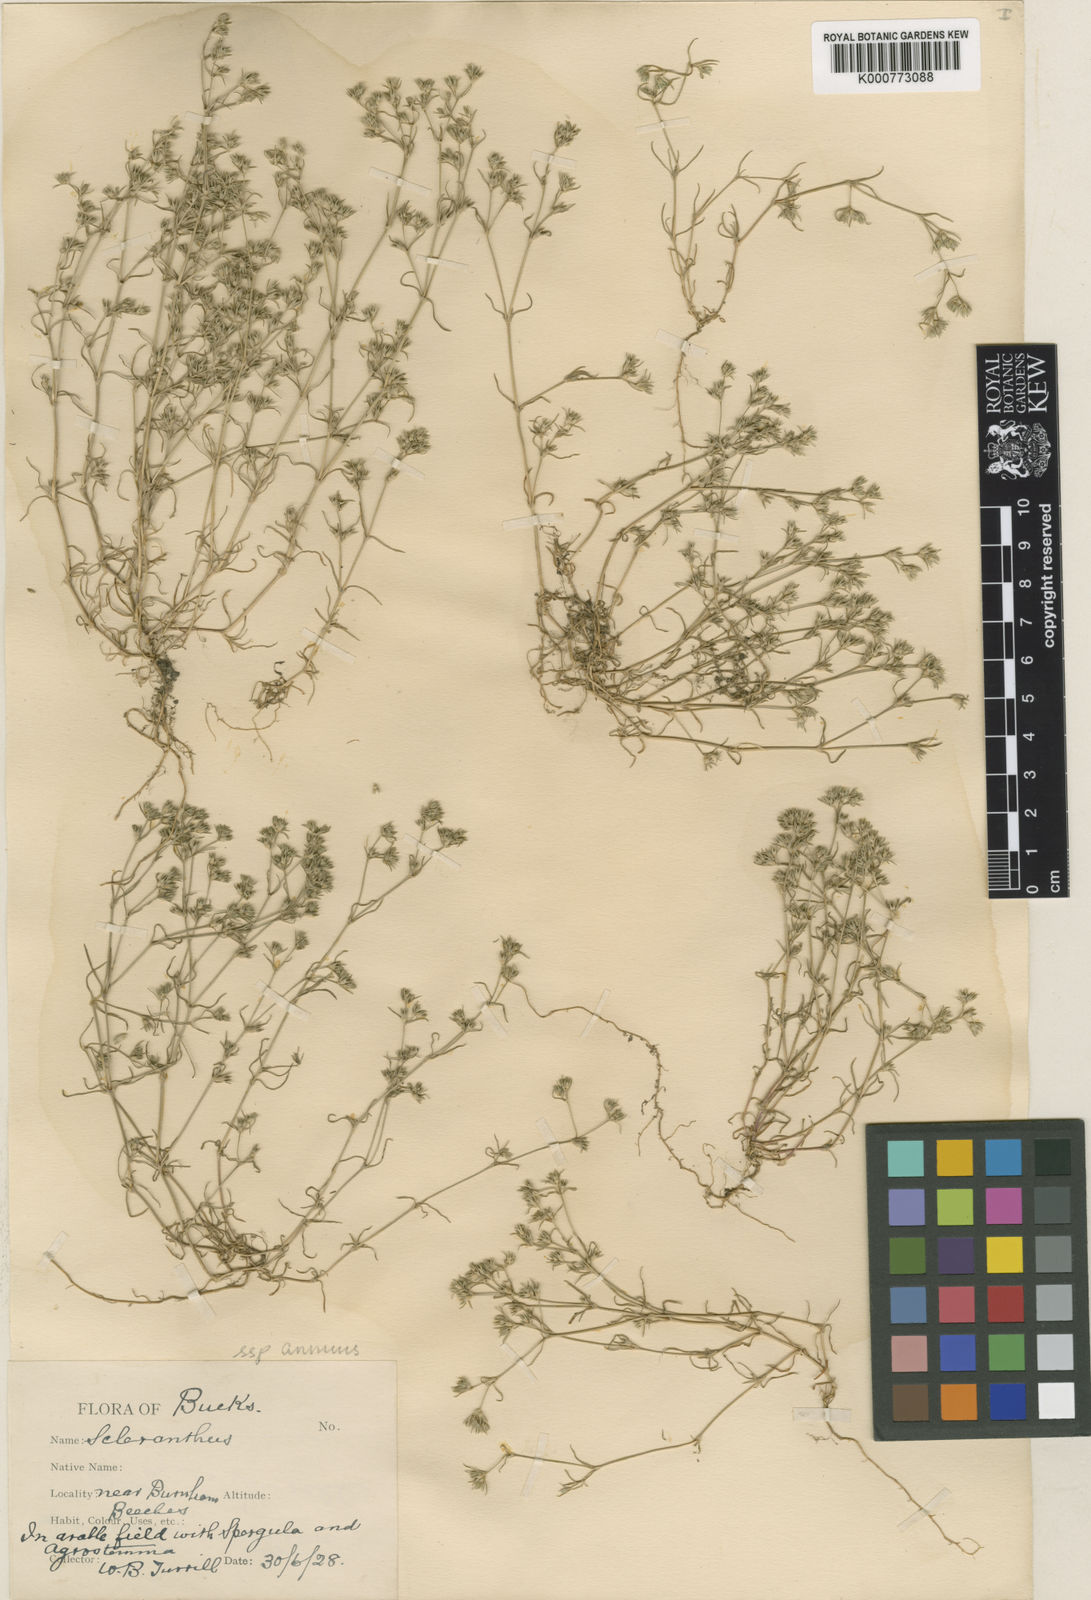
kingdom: Plantae
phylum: Tracheophyta
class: Magnoliopsida
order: Caryophyllales
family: Caryophyllaceae
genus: Scleranthus
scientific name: Scleranthus annuus
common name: Annual knawel
